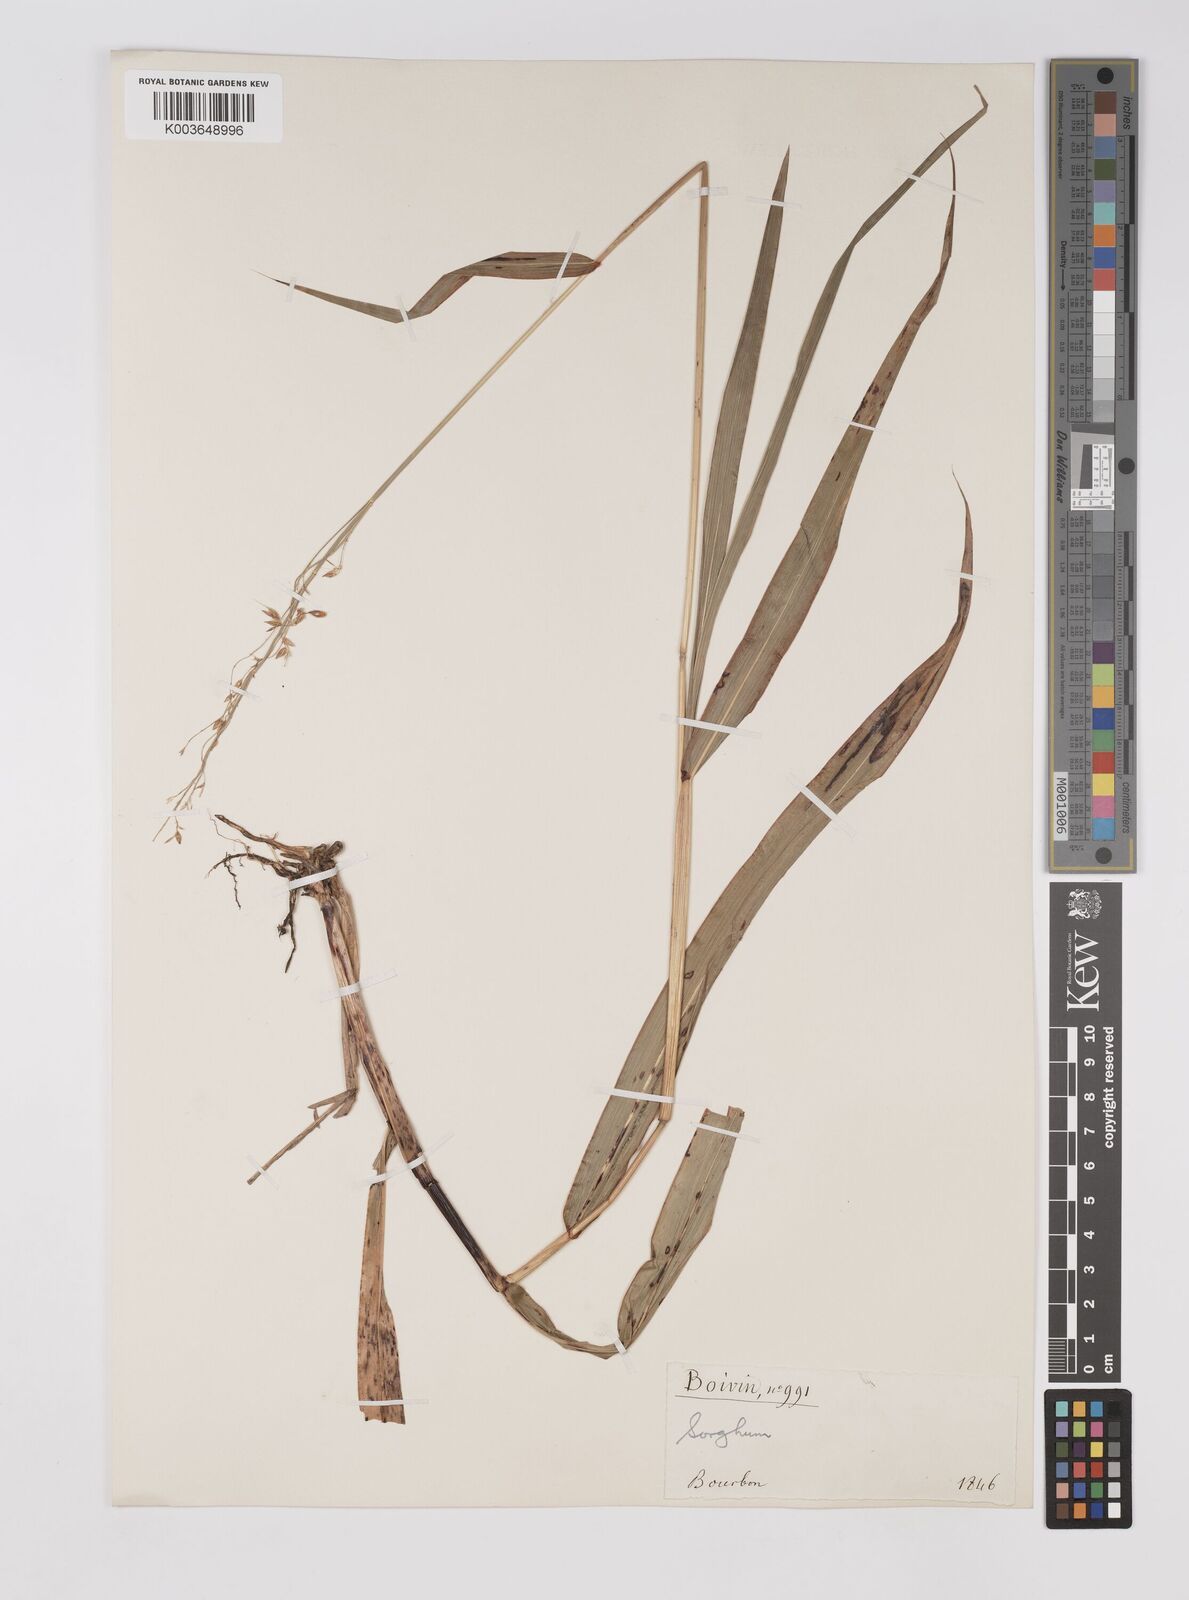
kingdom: Plantae
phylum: Tracheophyta
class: Liliopsida
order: Poales
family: Poaceae
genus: Sorghum
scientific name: Sorghum arundinaceum
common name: Sorghum
